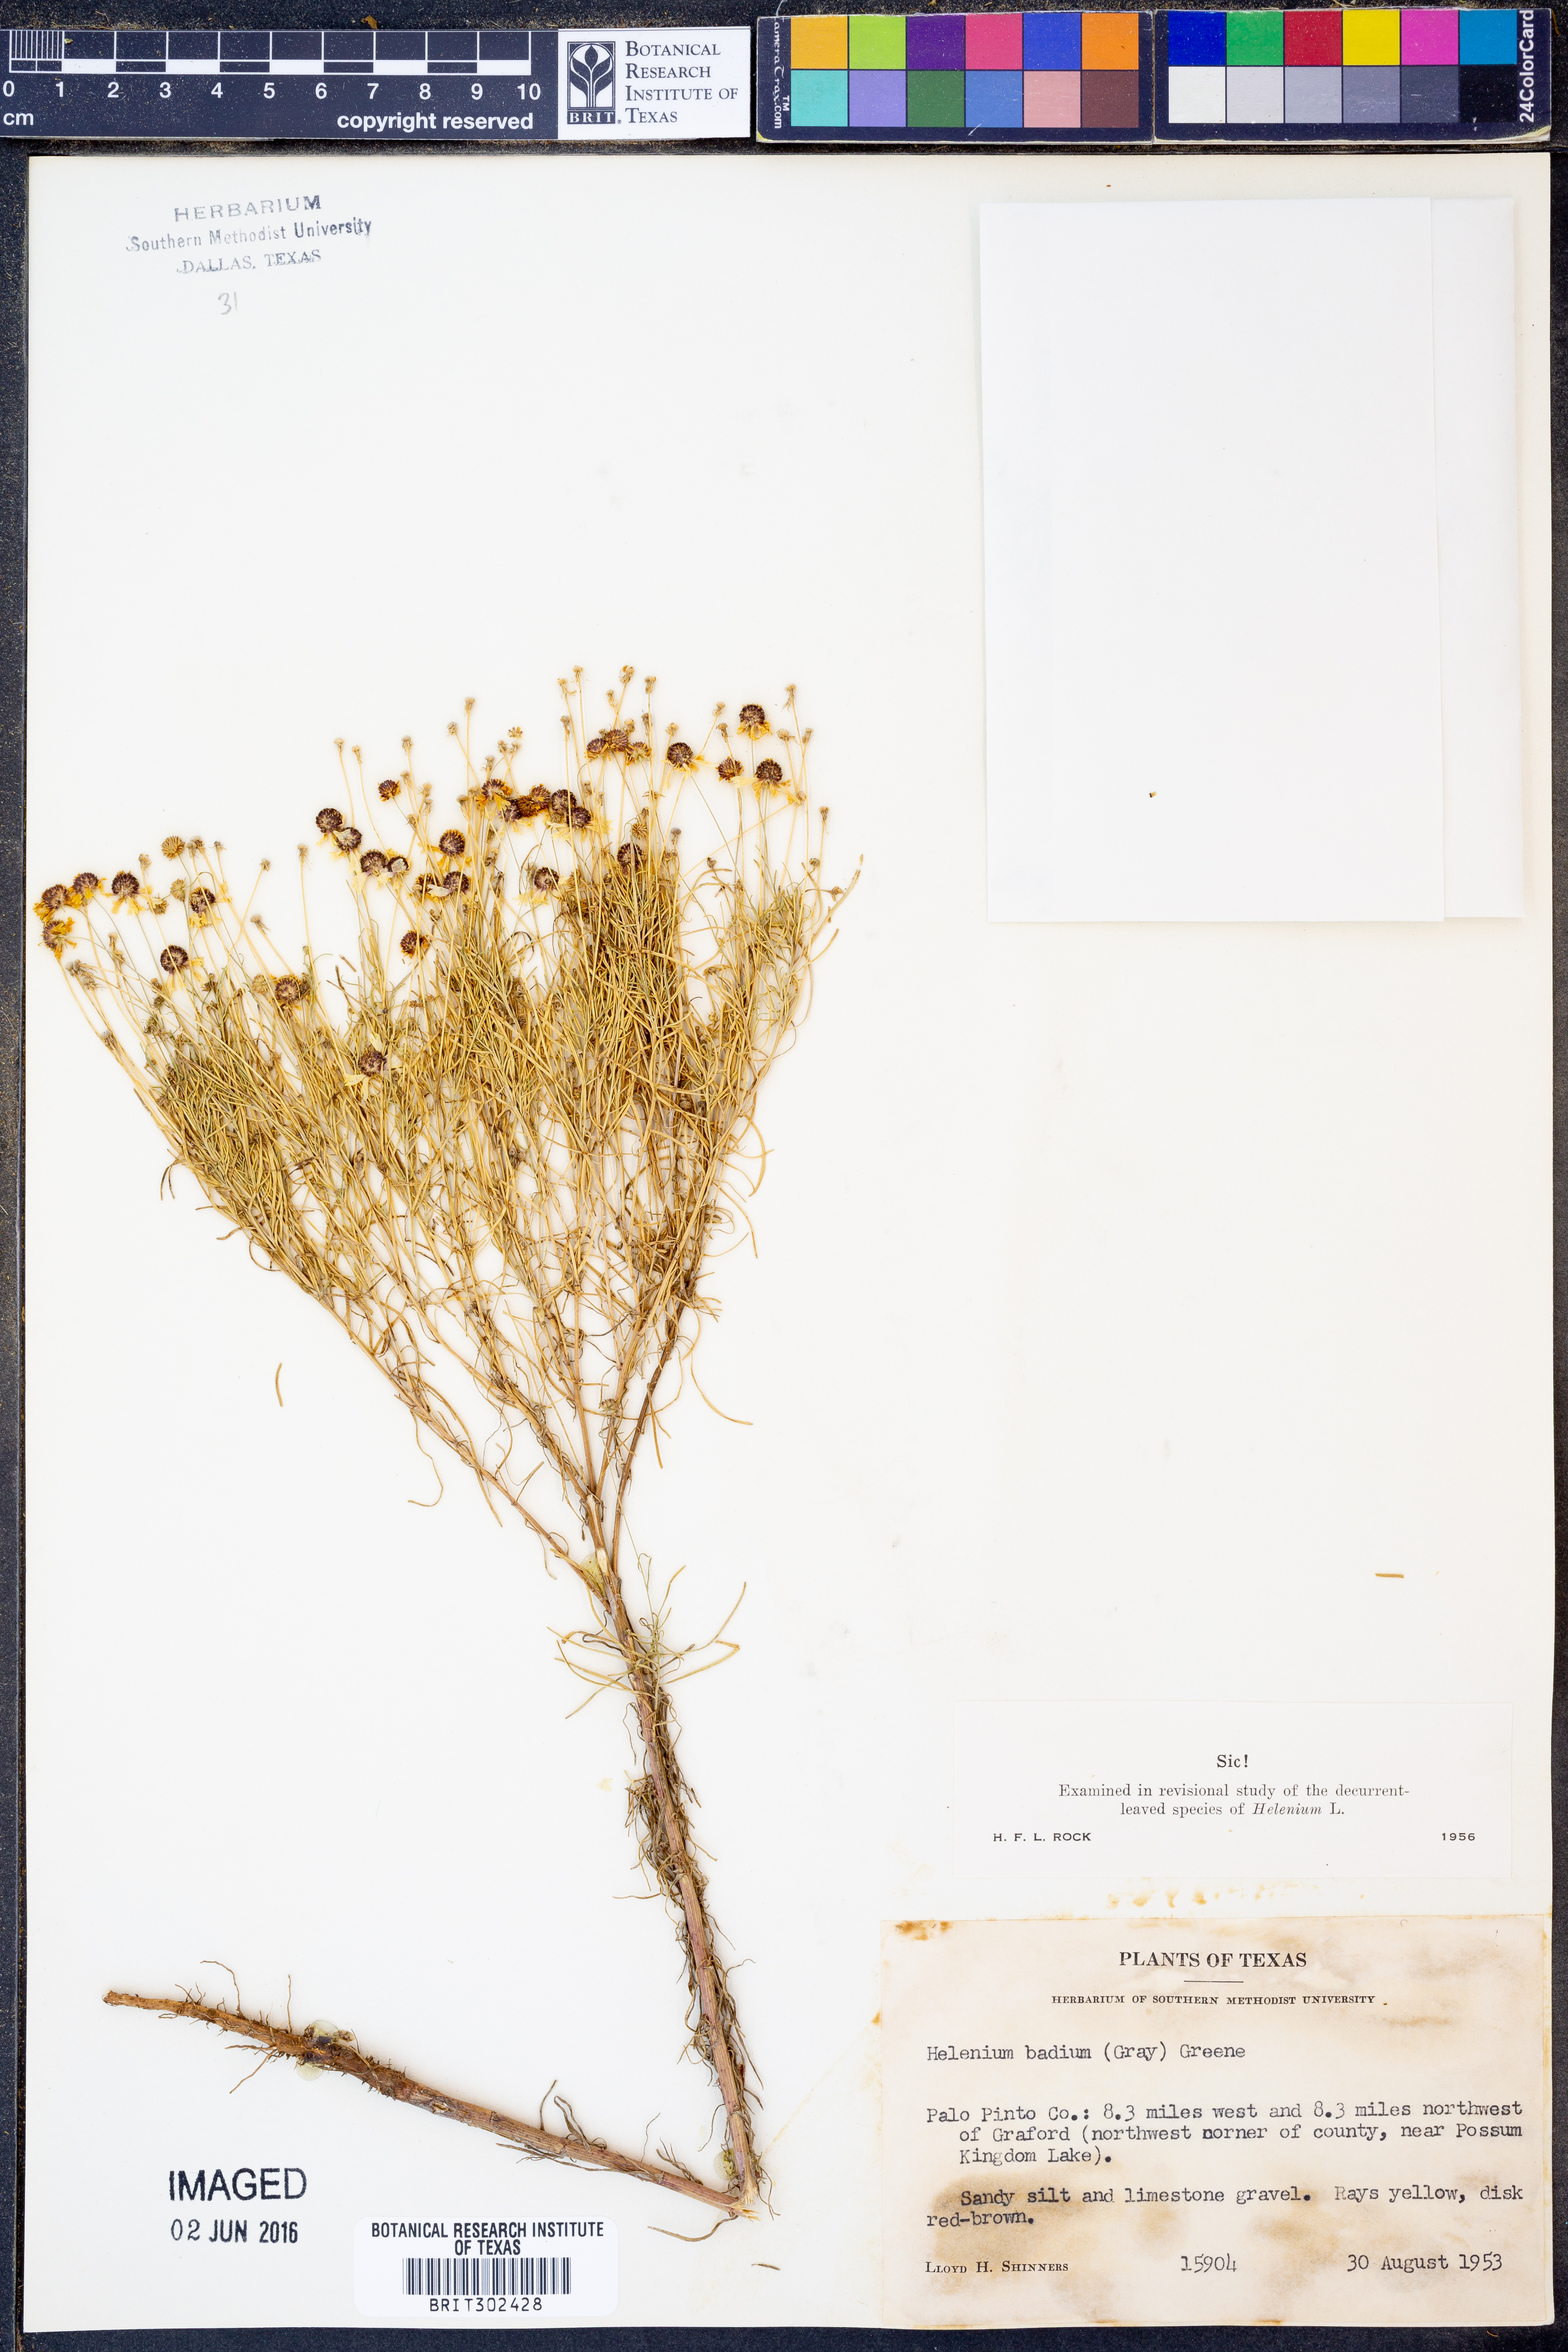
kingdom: Plantae
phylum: Tracheophyta
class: Magnoliopsida
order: Asterales
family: Asteraceae
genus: Helenium
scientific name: Helenium amarum
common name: Bitter sneezeweed
